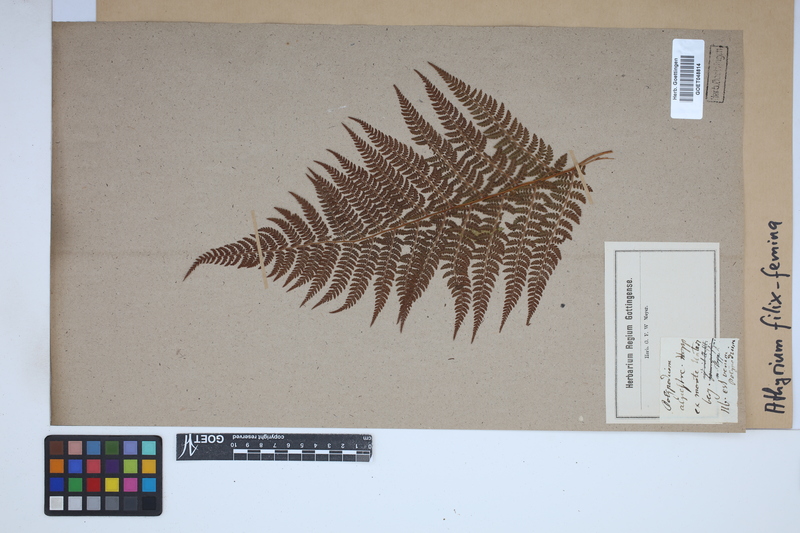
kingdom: Plantae
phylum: Tracheophyta
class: Polypodiopsida
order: Polypodiales
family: Athyriaceae
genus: Athyrium
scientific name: Athyrium filix-femina
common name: Lady fern
